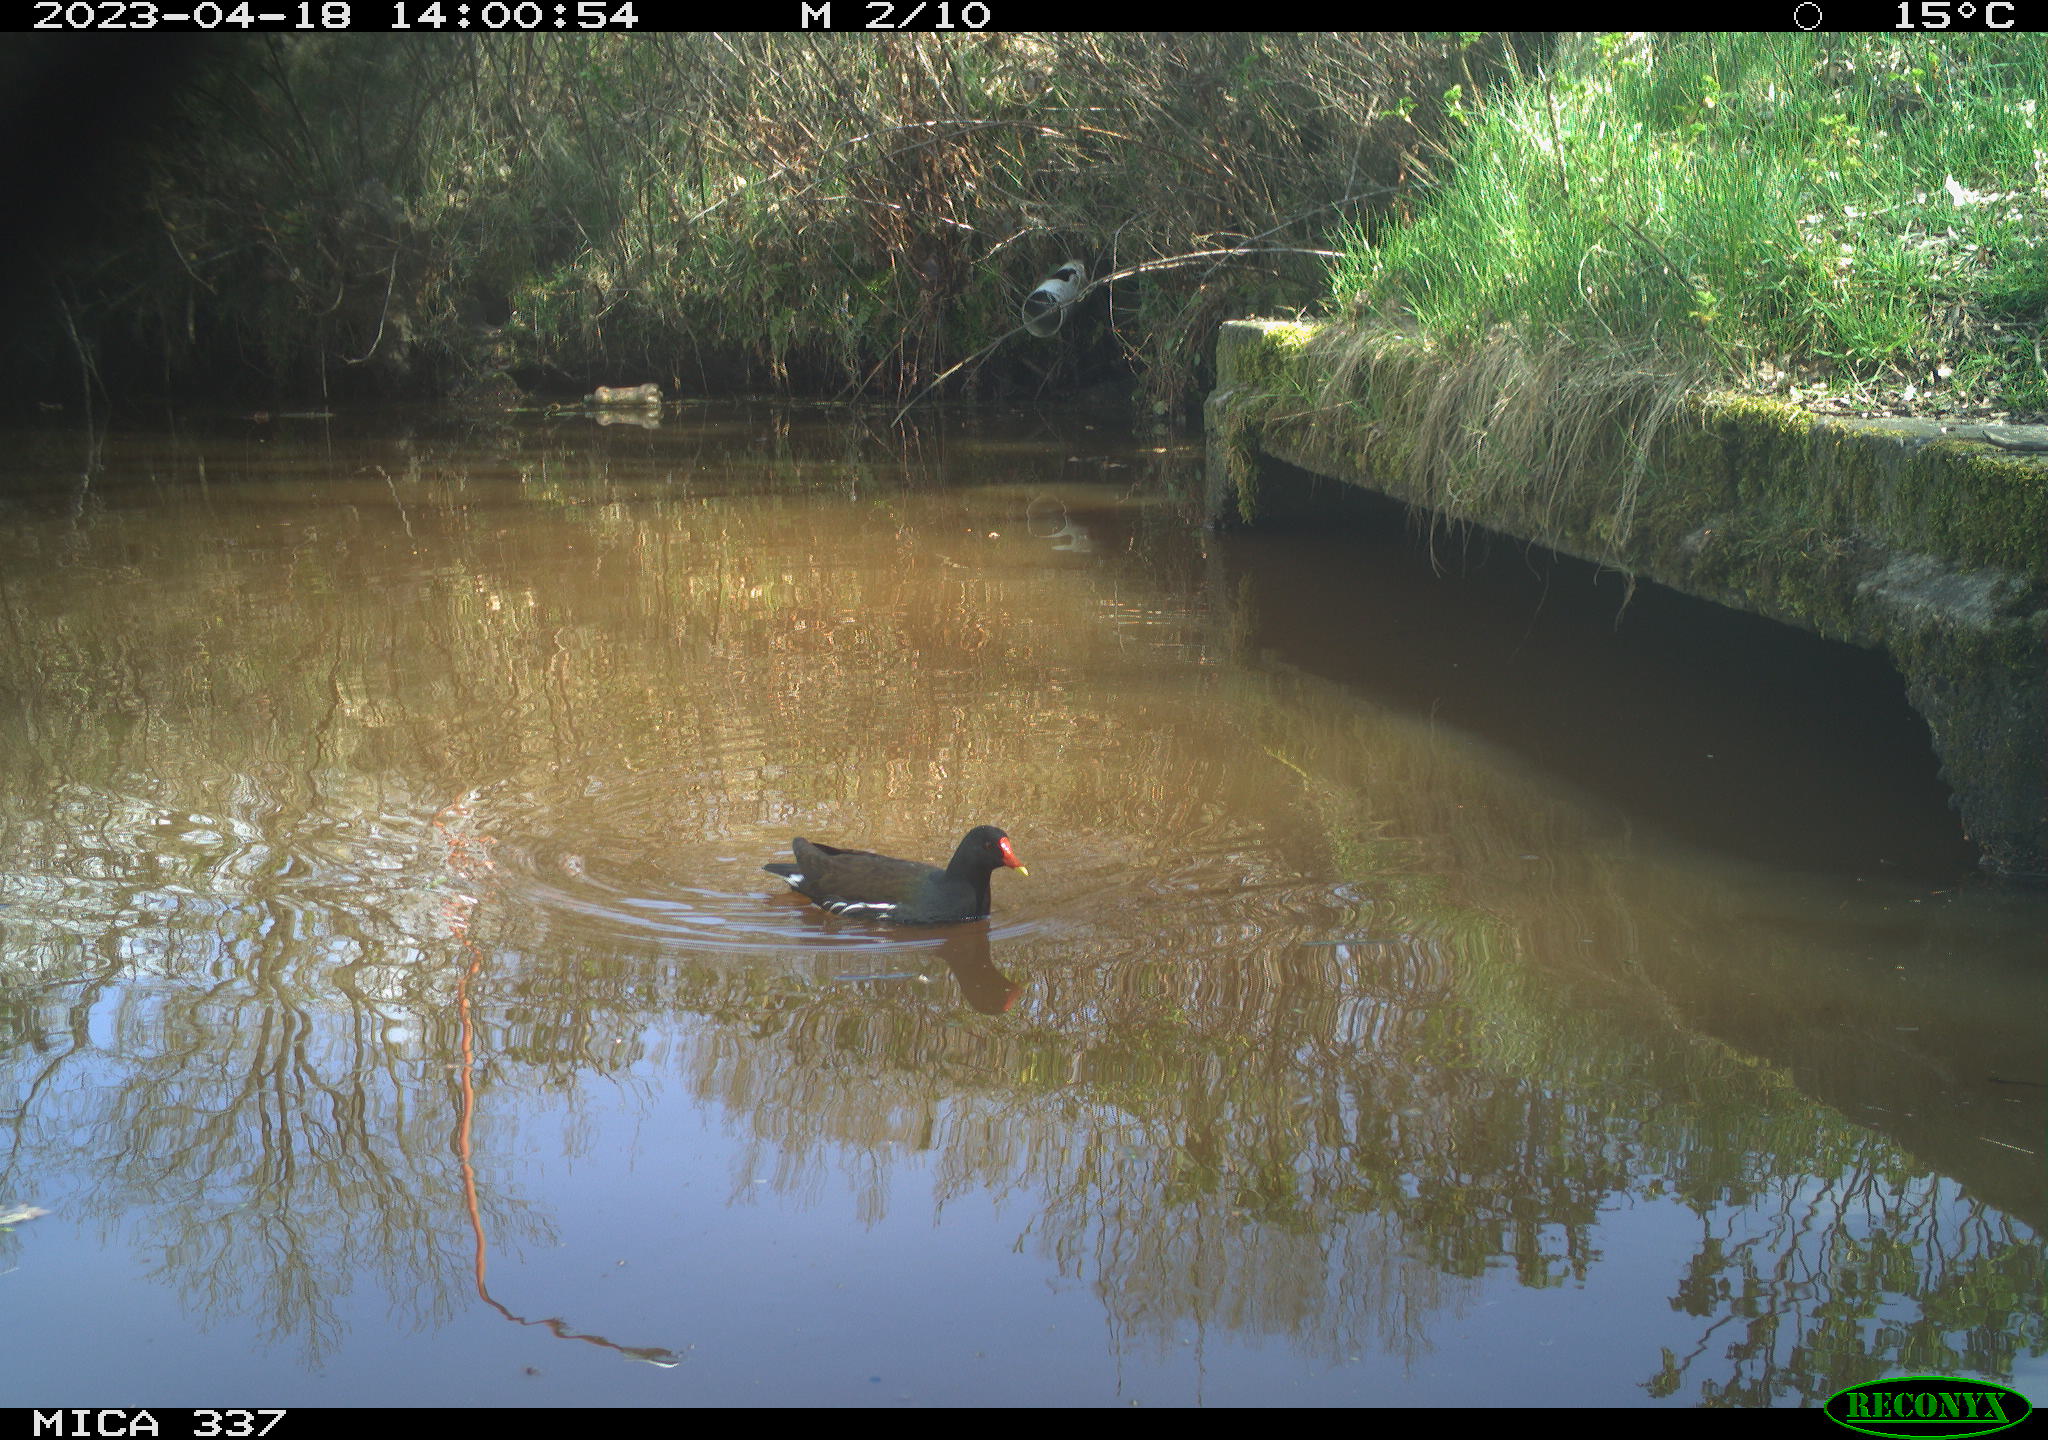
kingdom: Animalia
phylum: Chordata
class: Aves
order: Gruiformes
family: Rallidae
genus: Gallinula
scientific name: Gallinula chloropus
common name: Common moorhen
